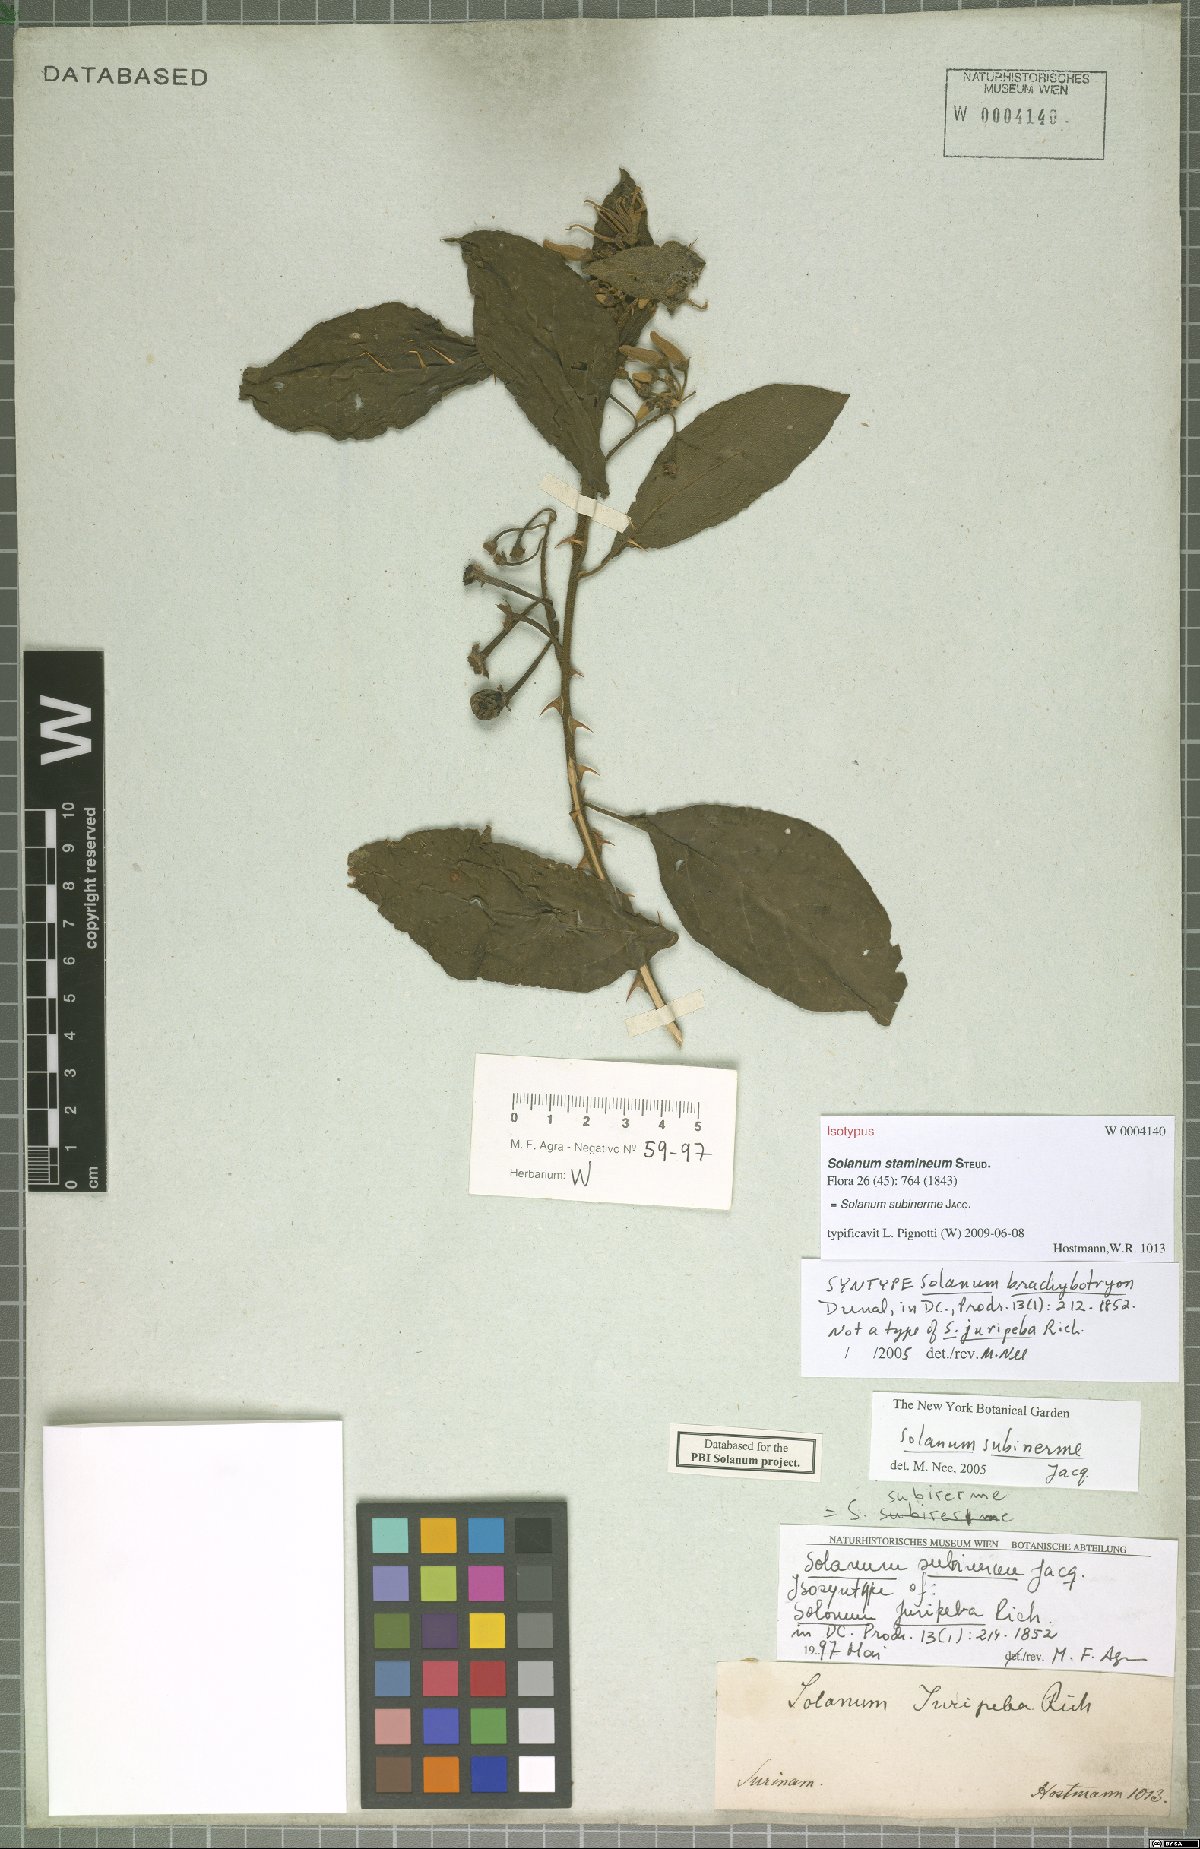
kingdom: Plantae
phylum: Tracheophyta
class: Magnoliopsida
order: Solanales
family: Solanaceae
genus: Solanum
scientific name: Solanum subinerme
